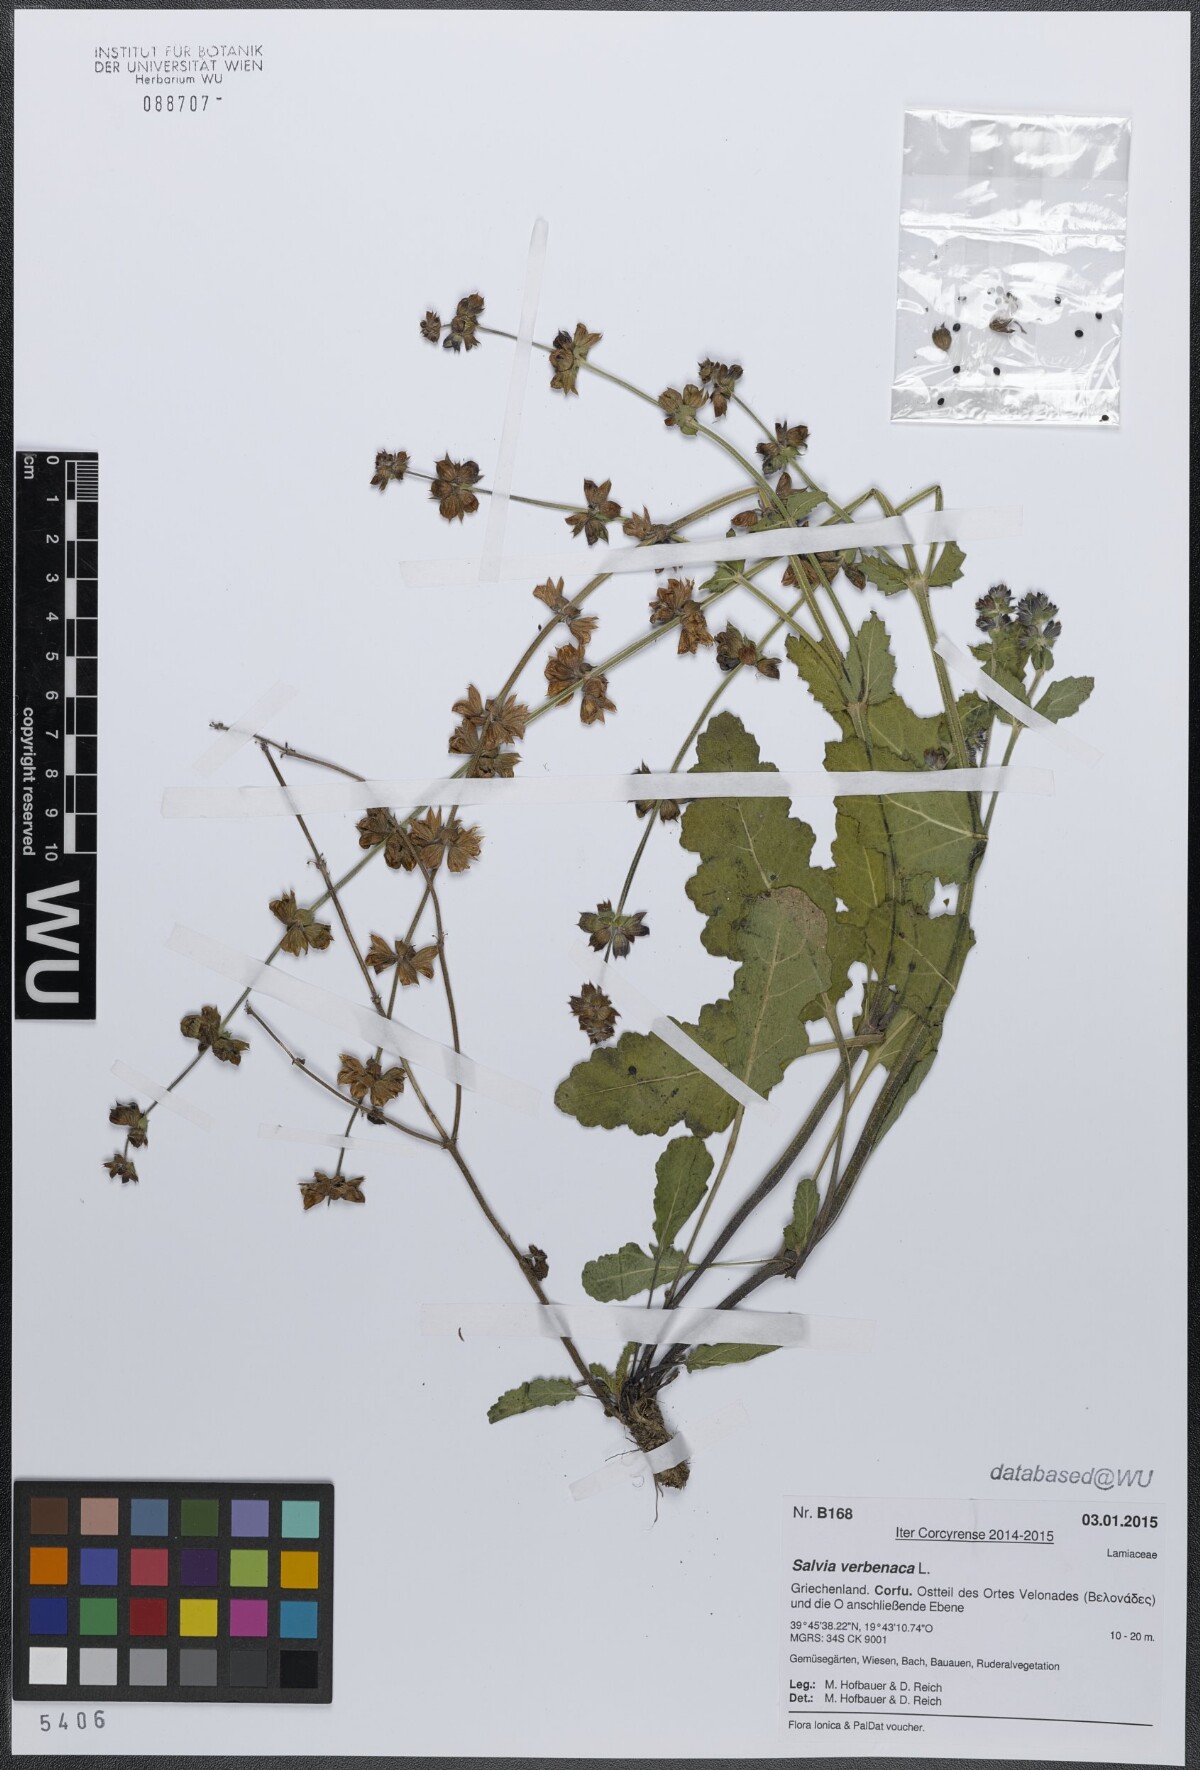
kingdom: Plantae
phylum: Tracheophyta
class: Magnoliopsida
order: Lamiales
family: Lamiaceae
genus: Salvia
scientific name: Salvia verbenaca
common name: Wild clary
